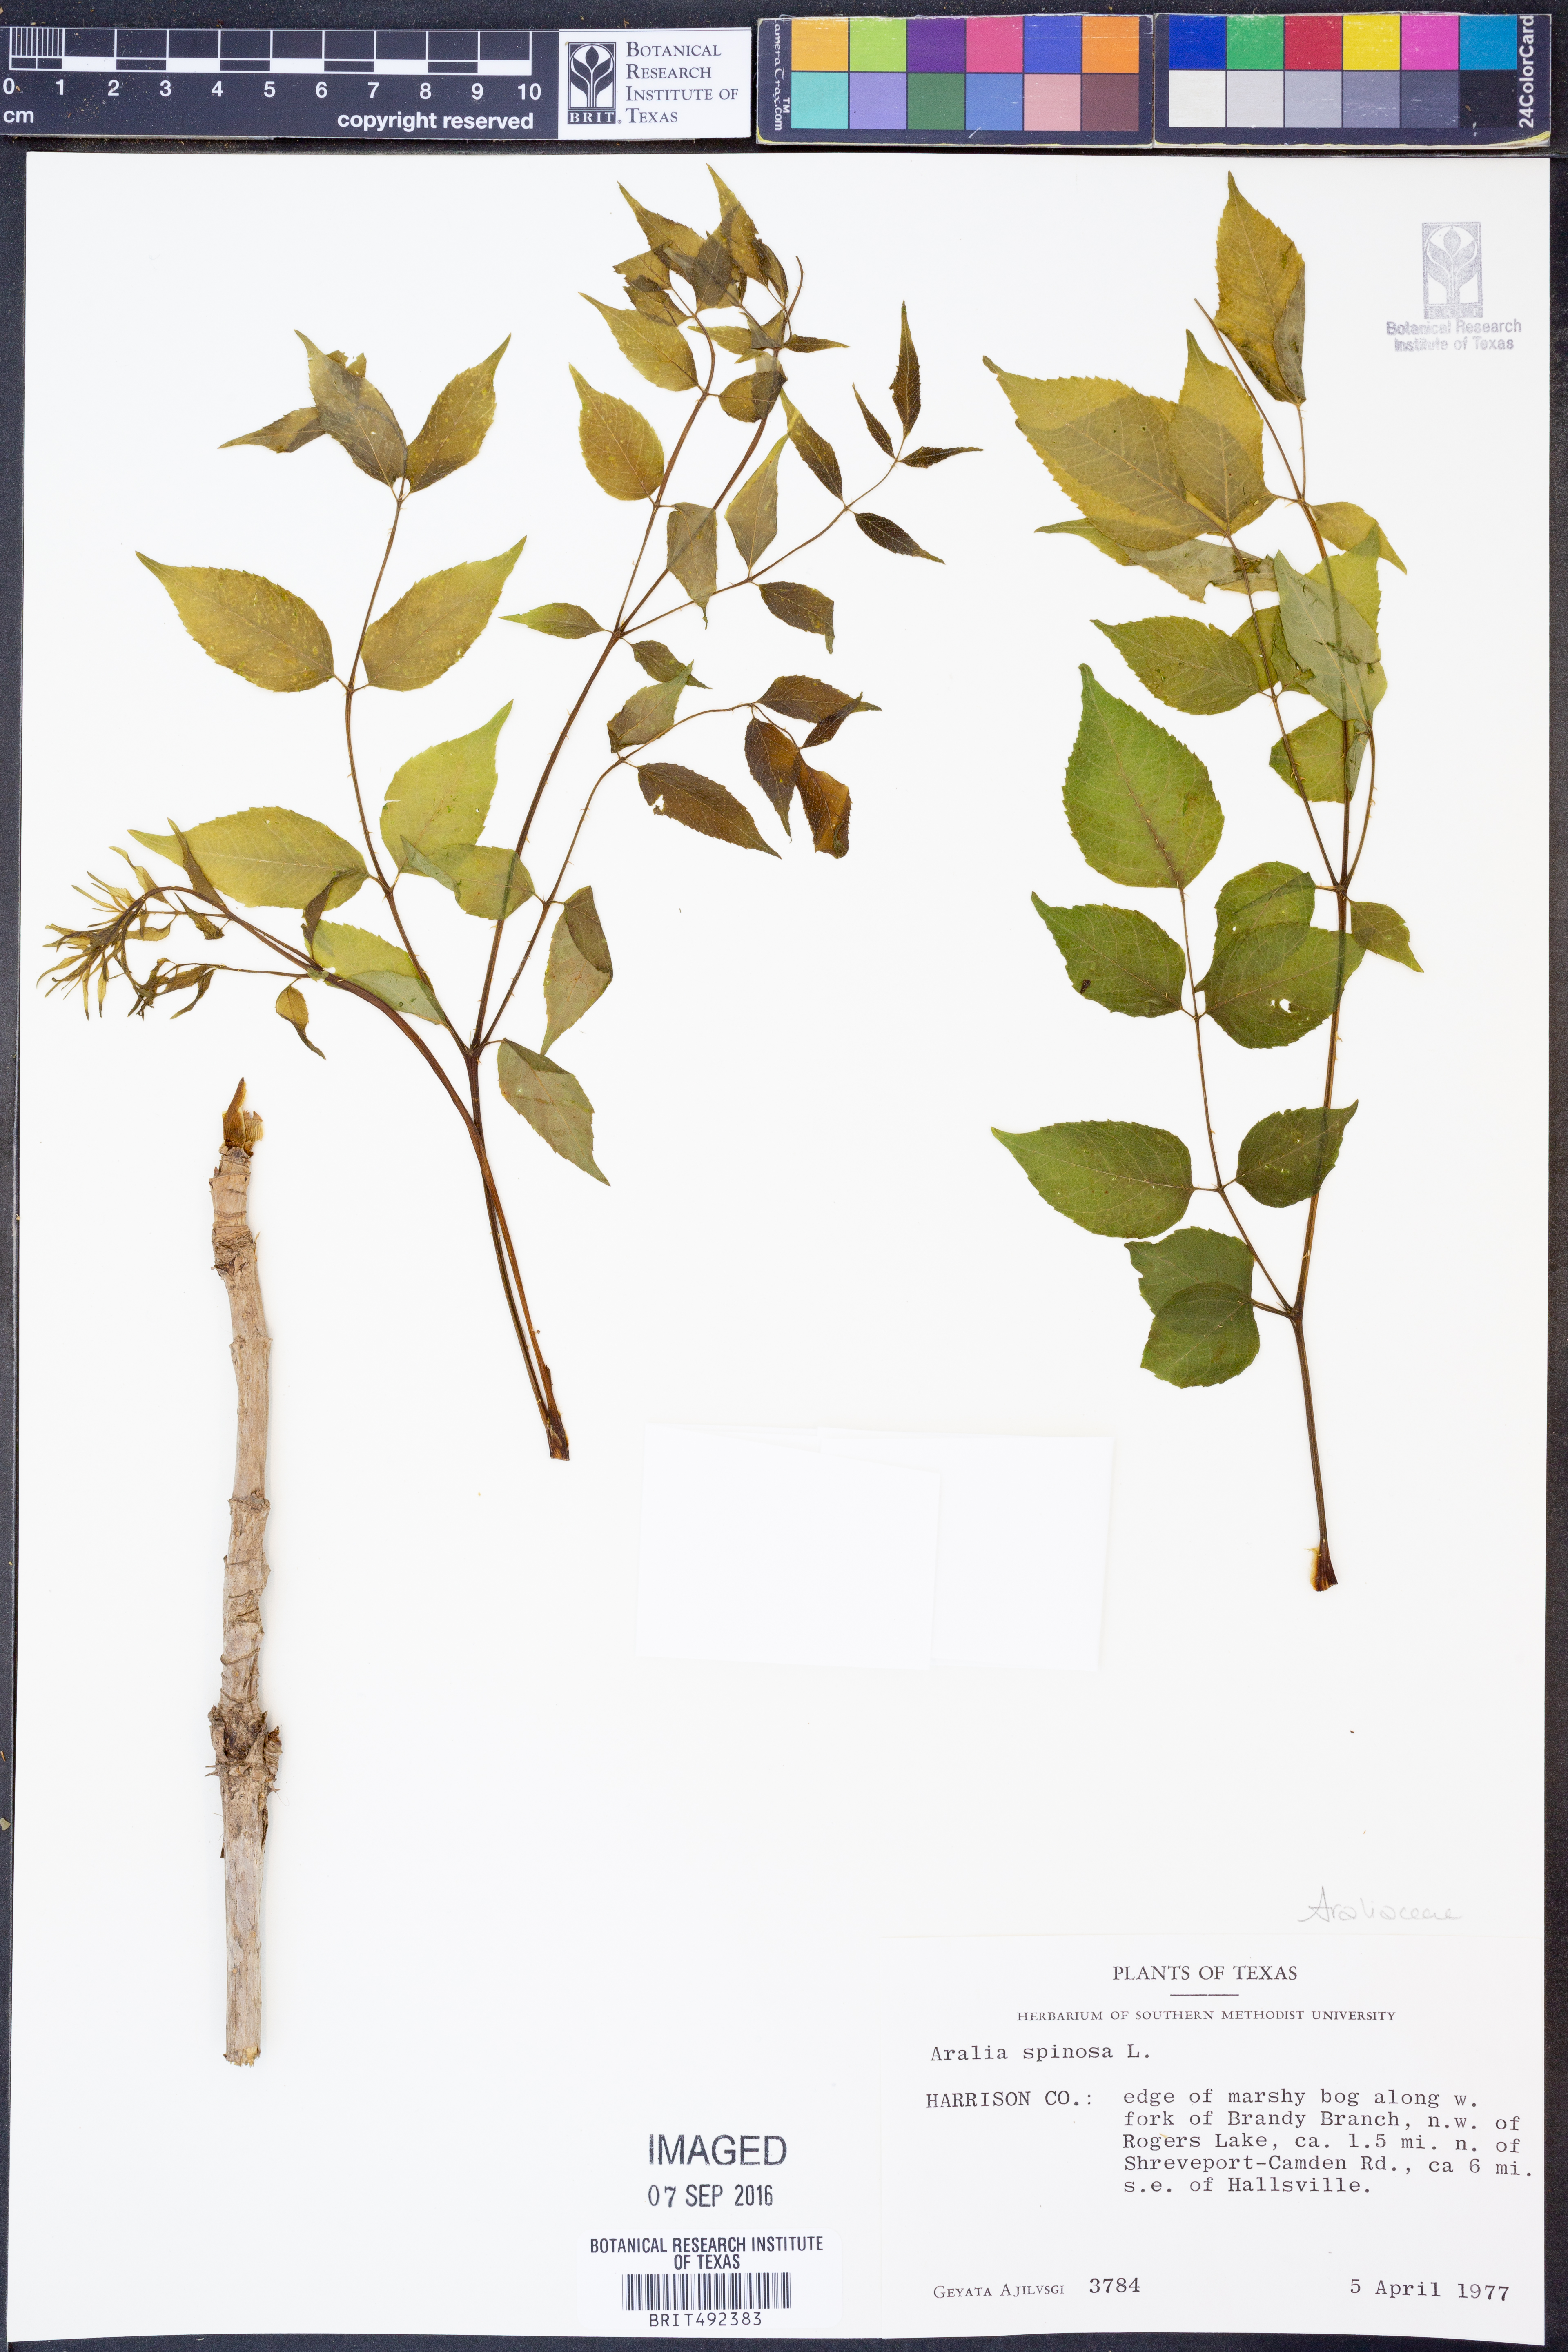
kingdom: Plantae
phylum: Tracheophyta
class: Magnoliopsida
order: Apiales
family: Araliaceae
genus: Aralia
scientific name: Aralia spinosa
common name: Hercules'-club
